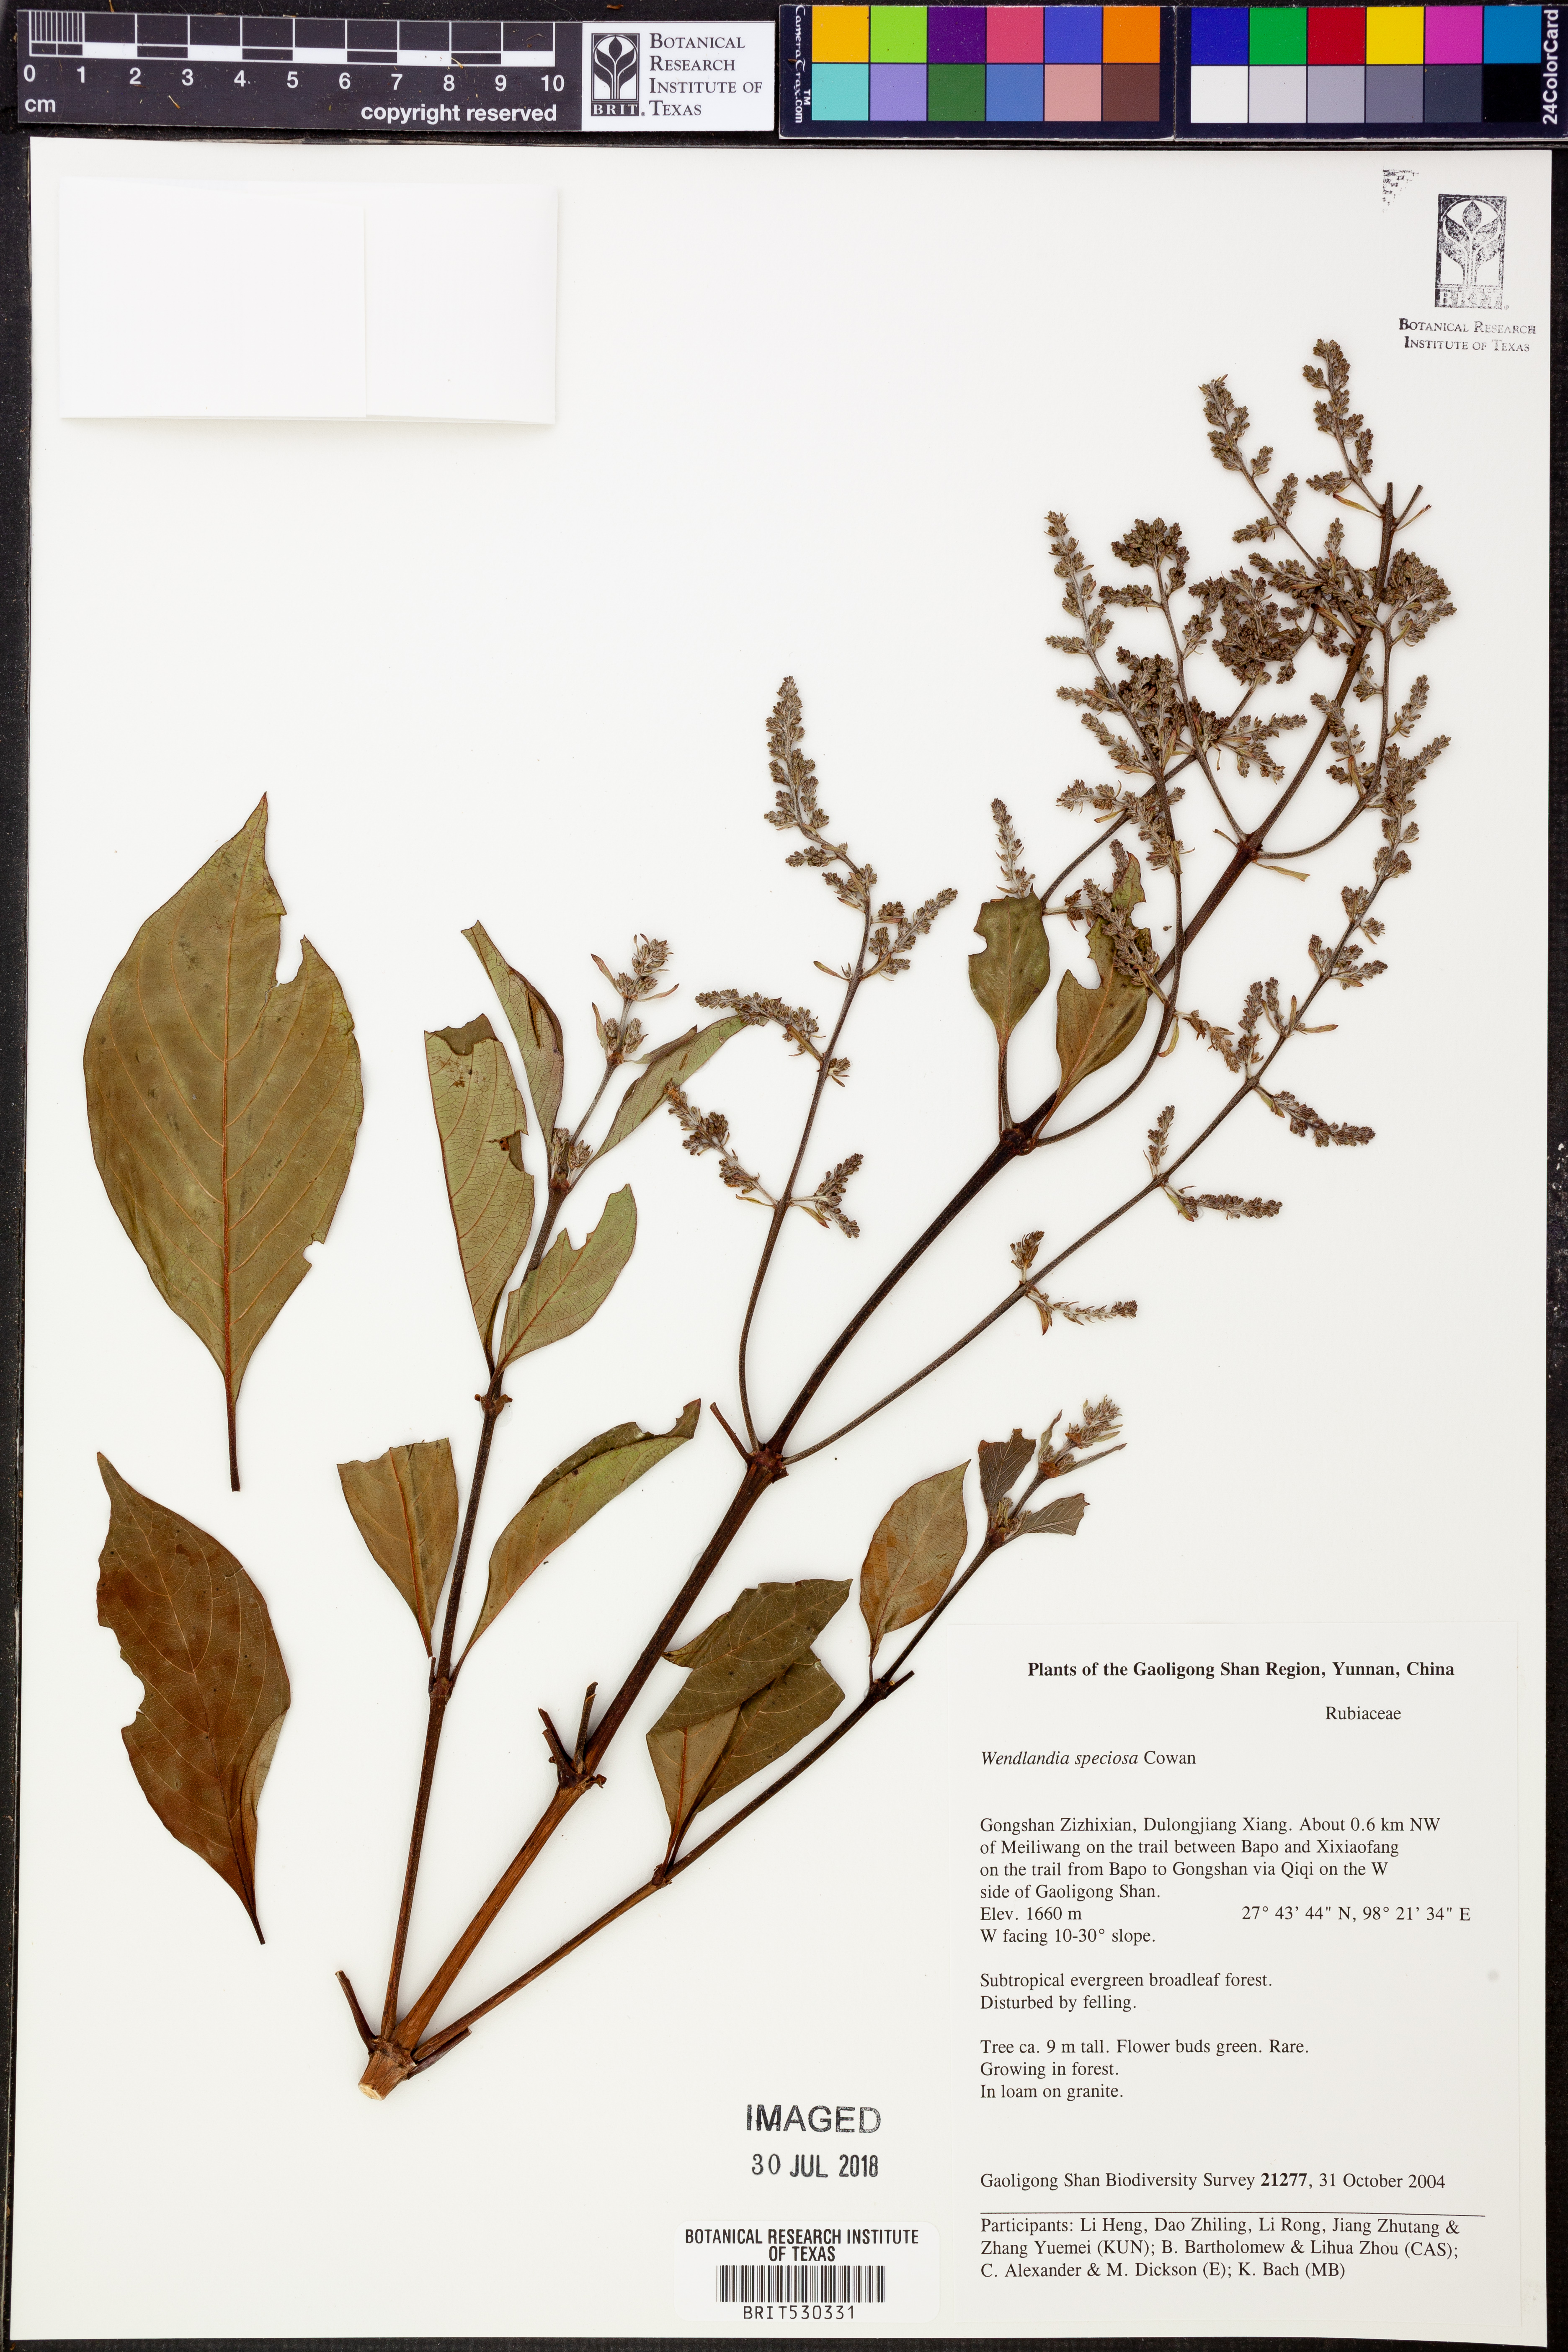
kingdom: Plantae
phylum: Tracheophyta
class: Magnoliopsida
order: Gentianales
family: Rubiaceae
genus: Wendlandia
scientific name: Wendlandia speciosa
